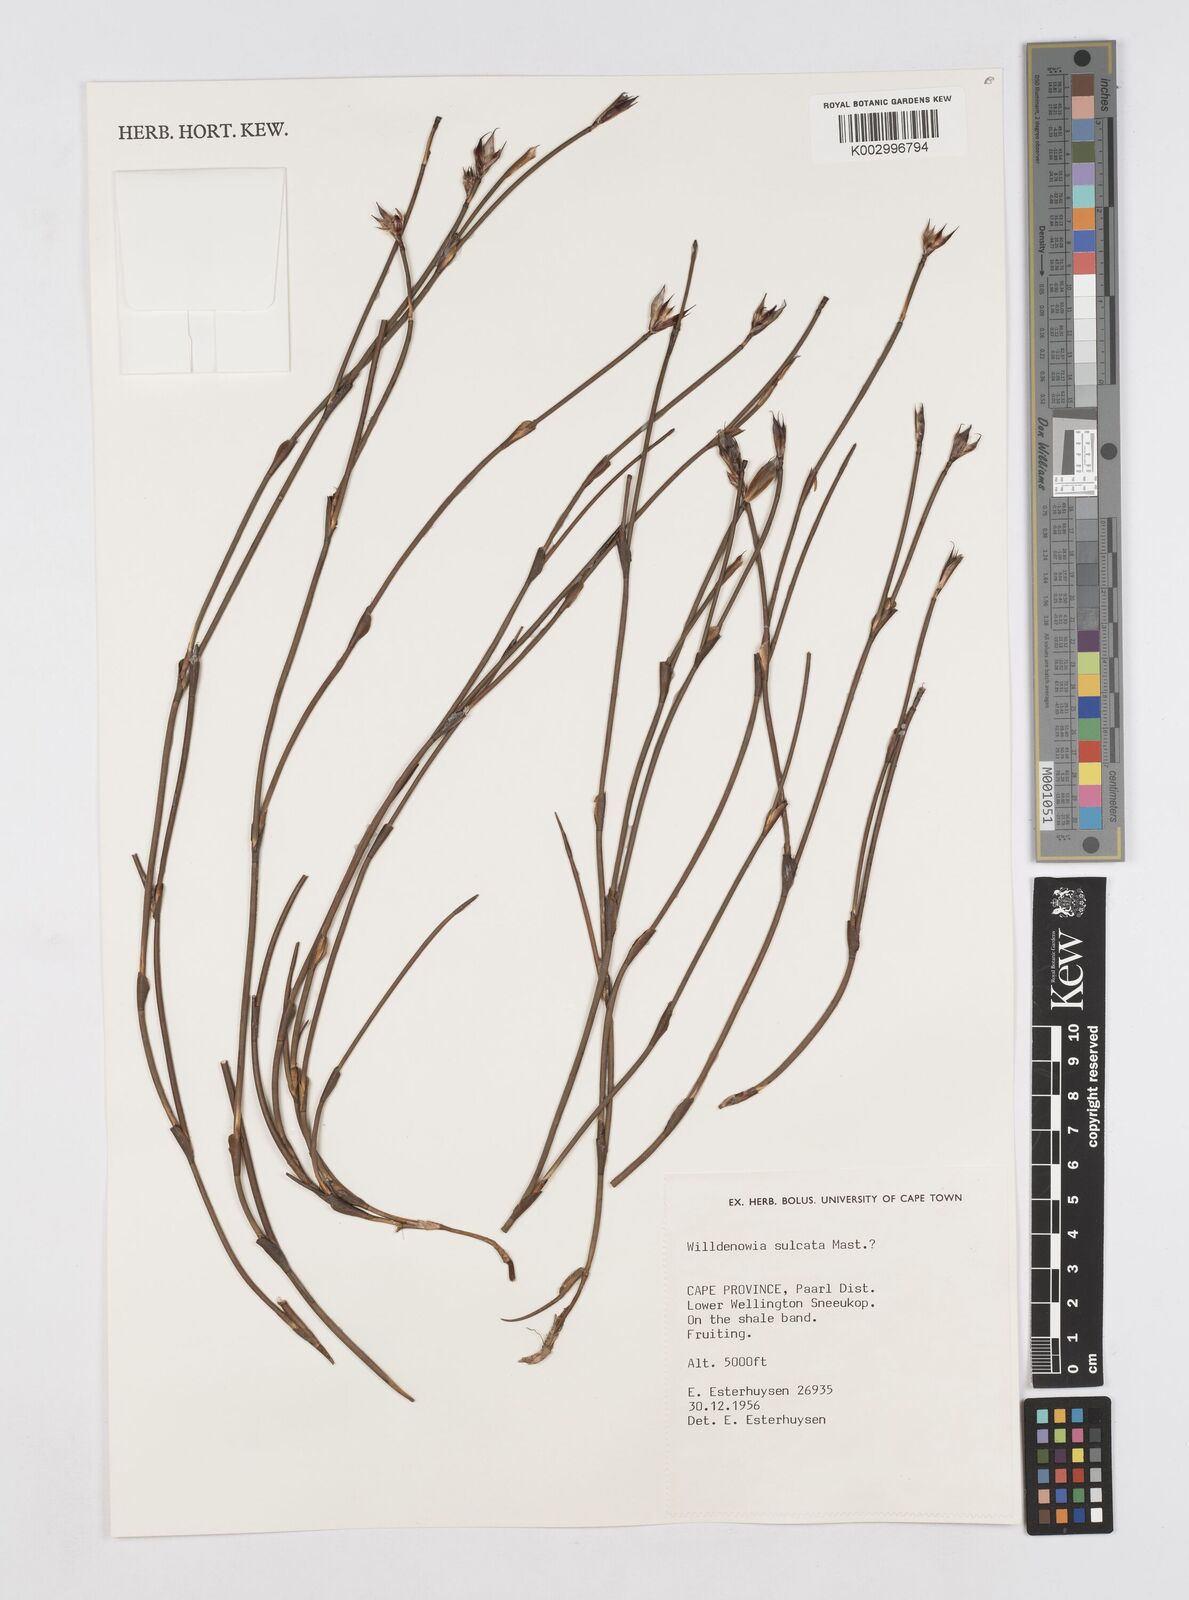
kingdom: Plantae
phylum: Tracheophyta
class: Liliopsida
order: Poales
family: Restionaceae
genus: Willdenowia
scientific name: Willdenowia sulcata
